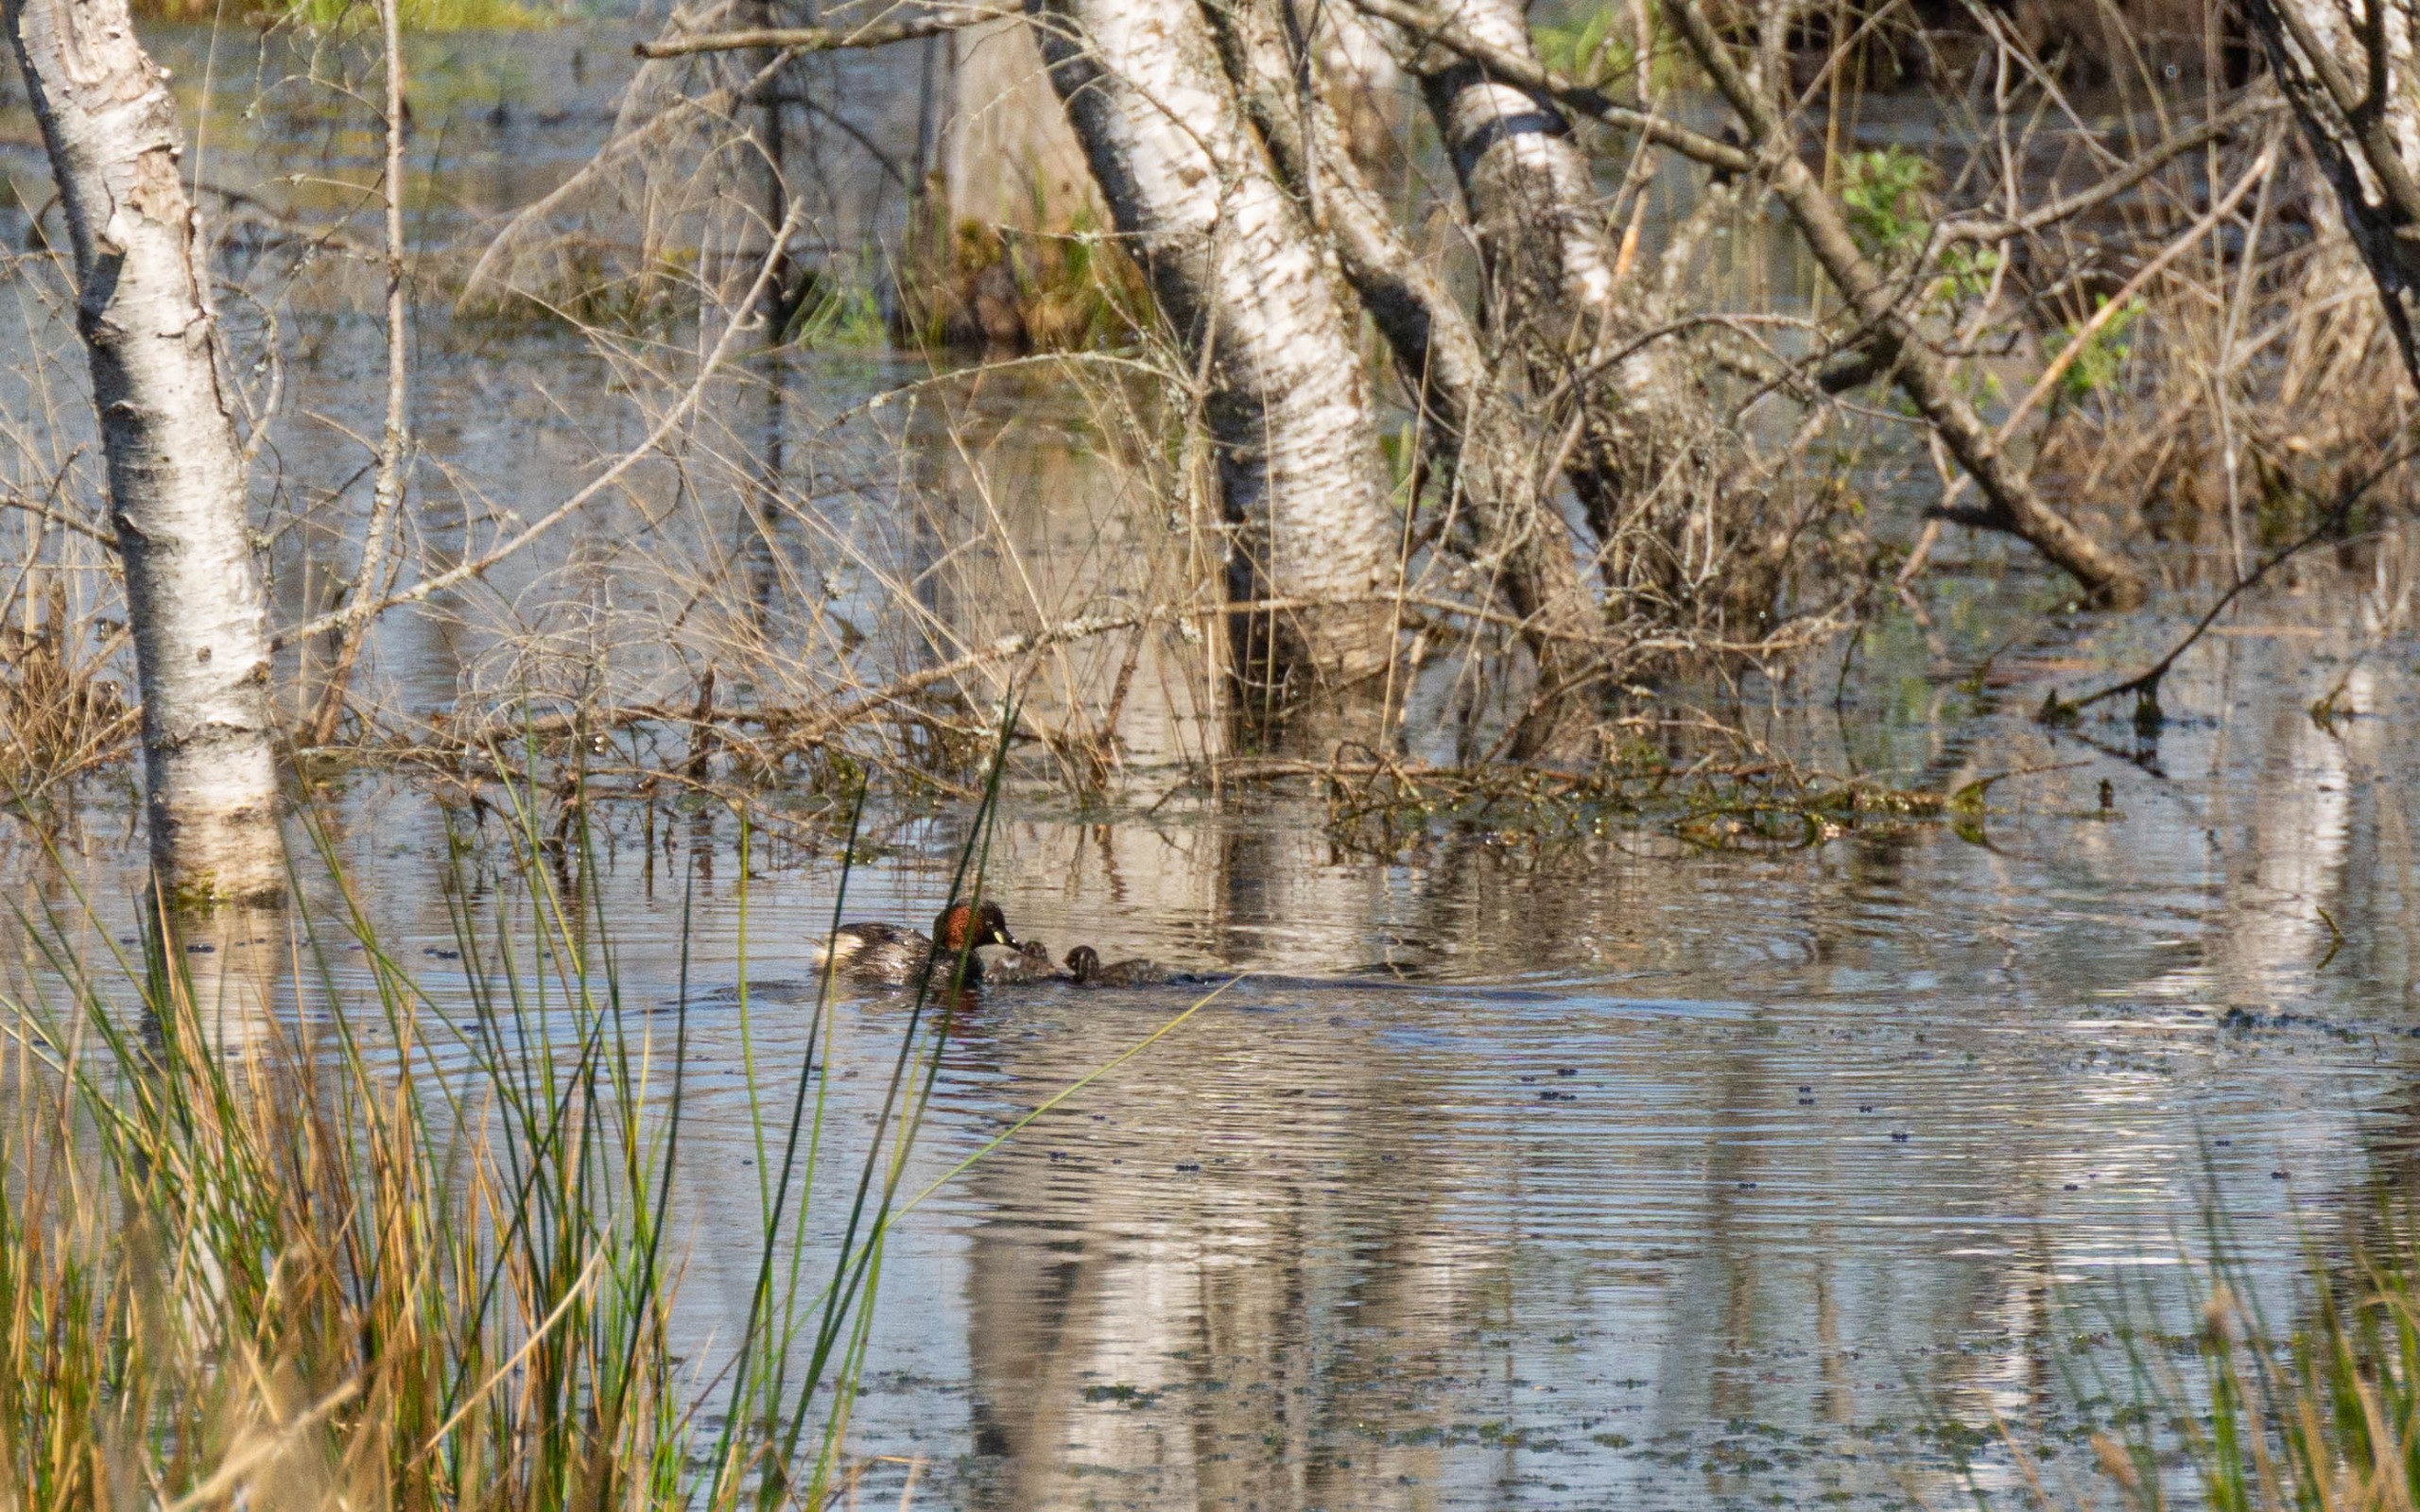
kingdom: Animalia
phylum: Chordata
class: Aves
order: Podicipediformes
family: Podicipedidae
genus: Tachybaptus
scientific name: Tachybaptus ruficollis
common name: Lille lappedykker
